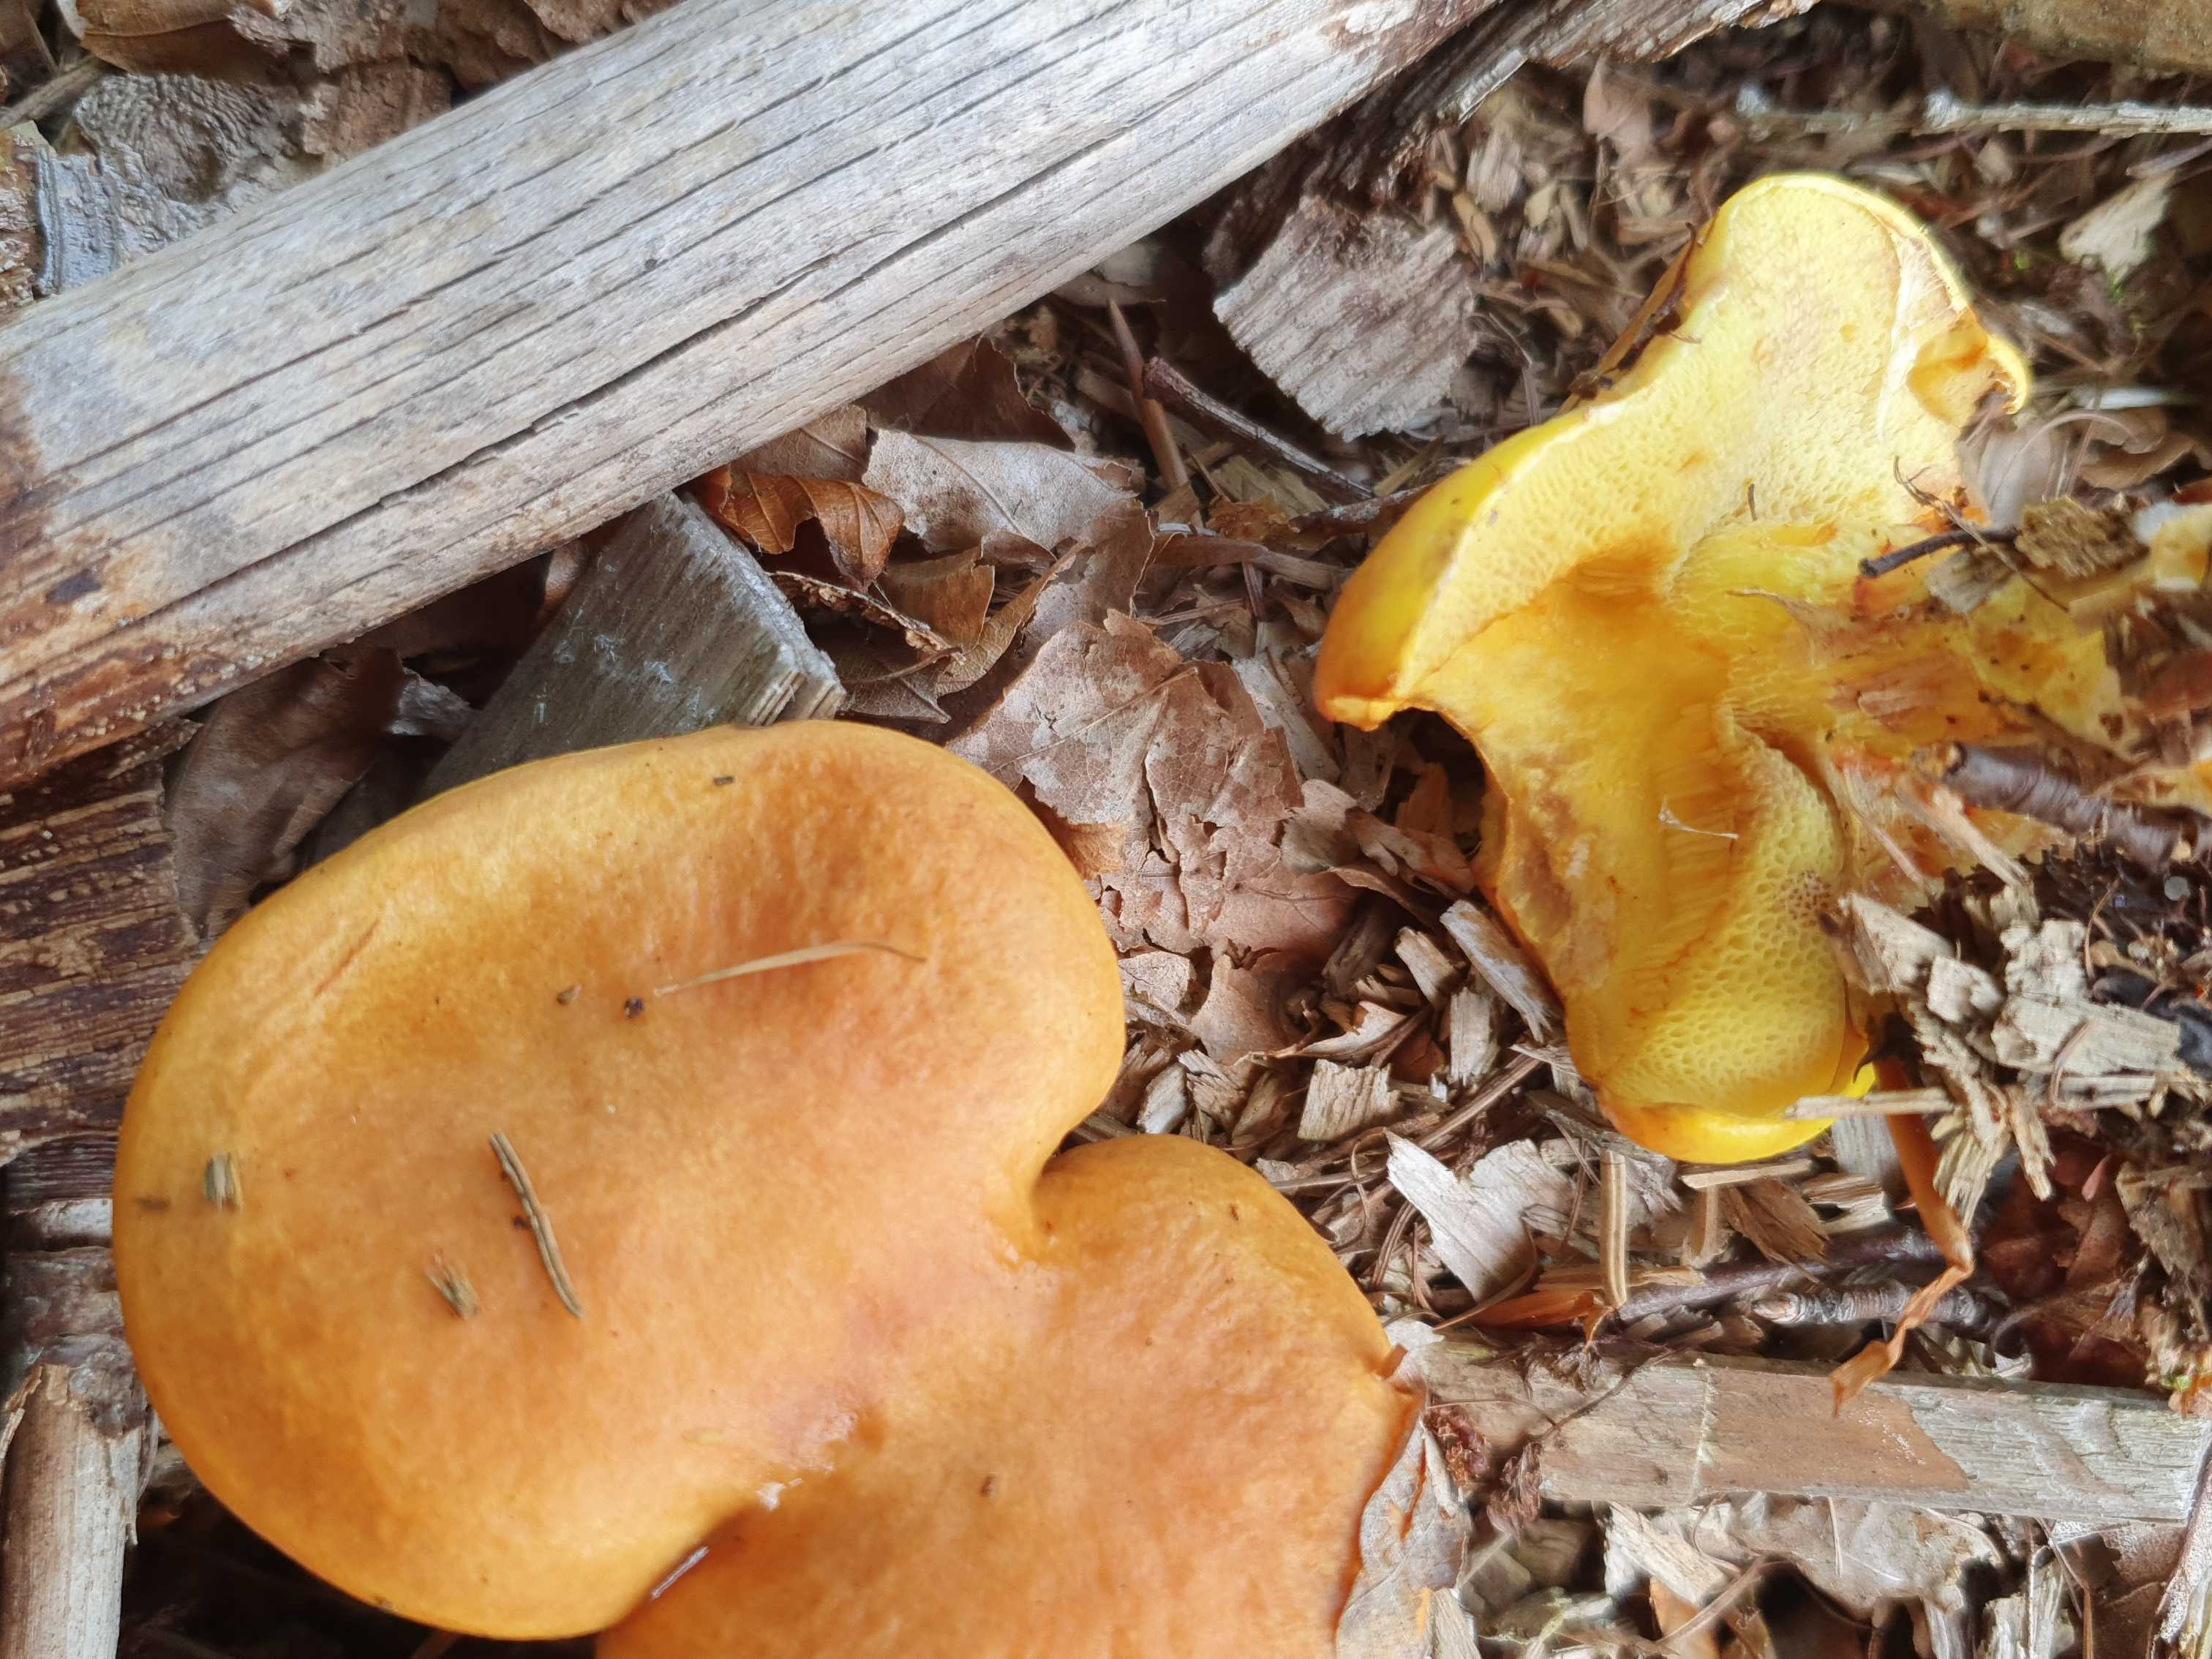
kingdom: Fungi
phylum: Basidiomycota
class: Agaricomycetes
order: Boletales
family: Suillaceae
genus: Suillus
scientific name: Suillus grevillei
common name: lærke-slimrørhat
